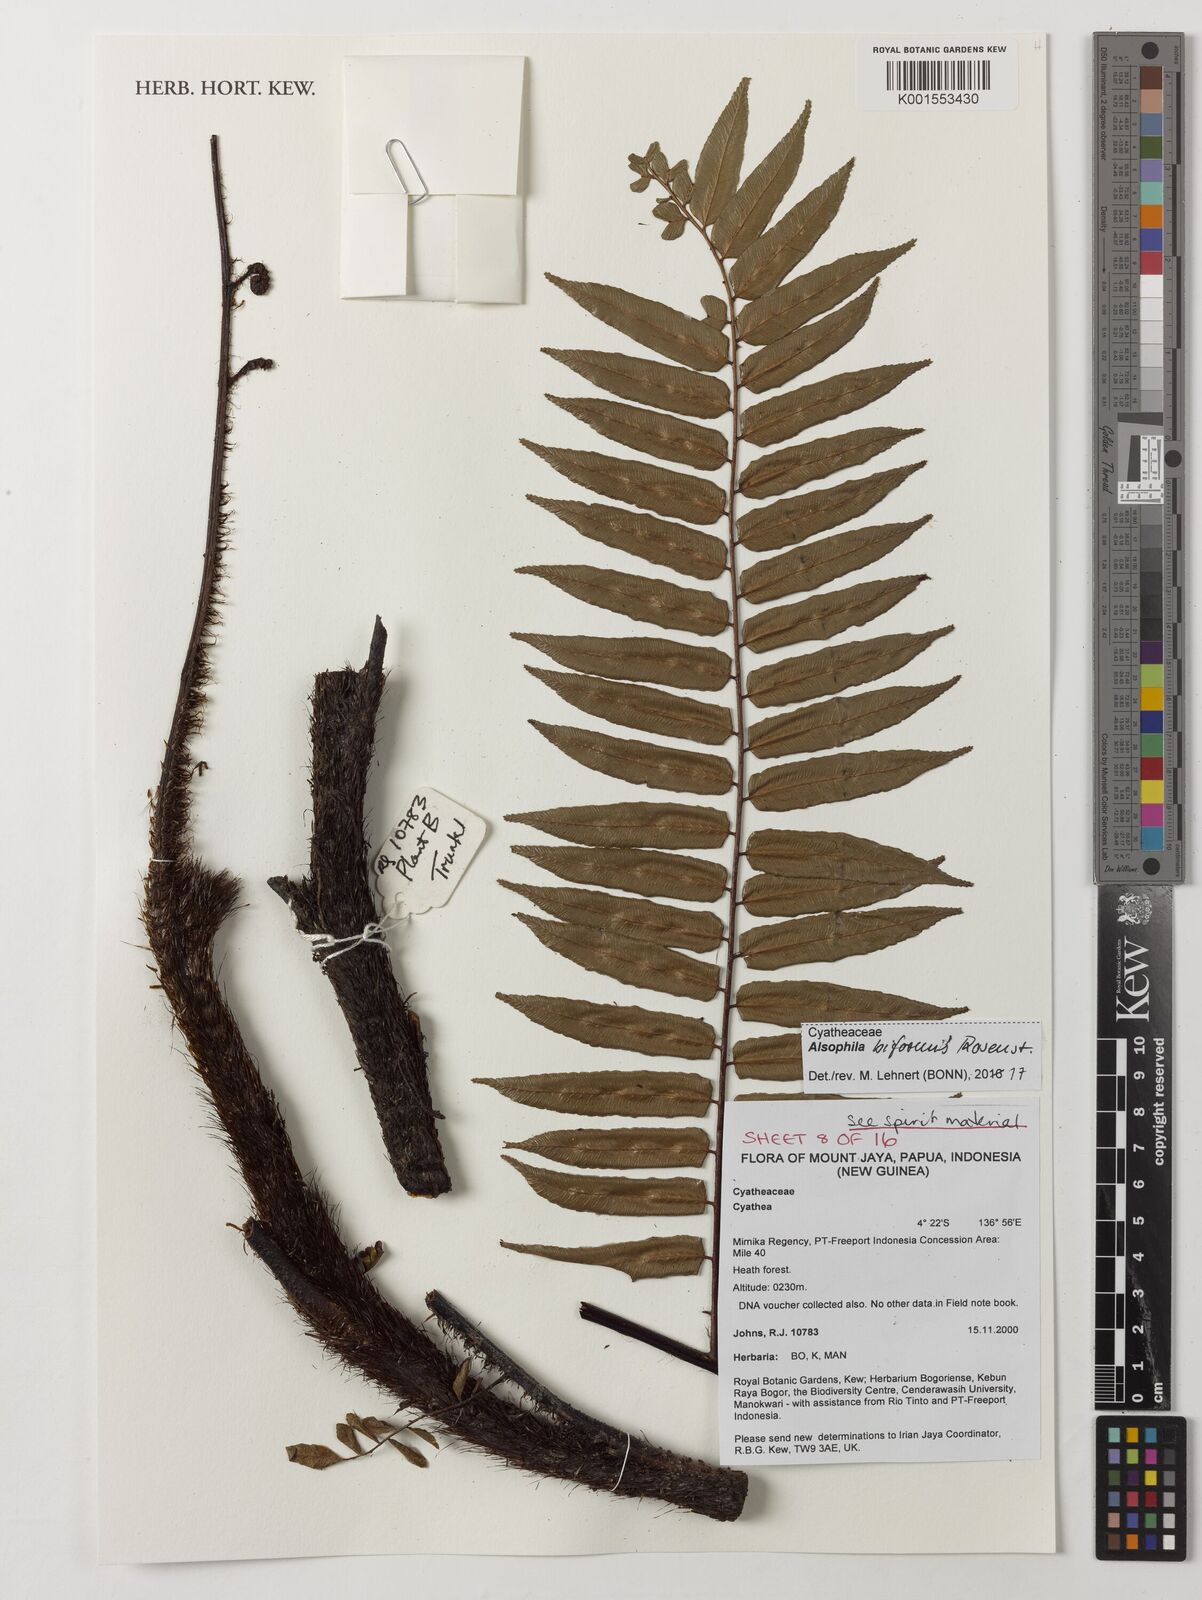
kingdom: Plantae
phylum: Tracheophyta
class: Polypodiopsida
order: Cyatheales
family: Cyatheaceae
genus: Gymnosphaera
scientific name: Gymnosphaera biformis
